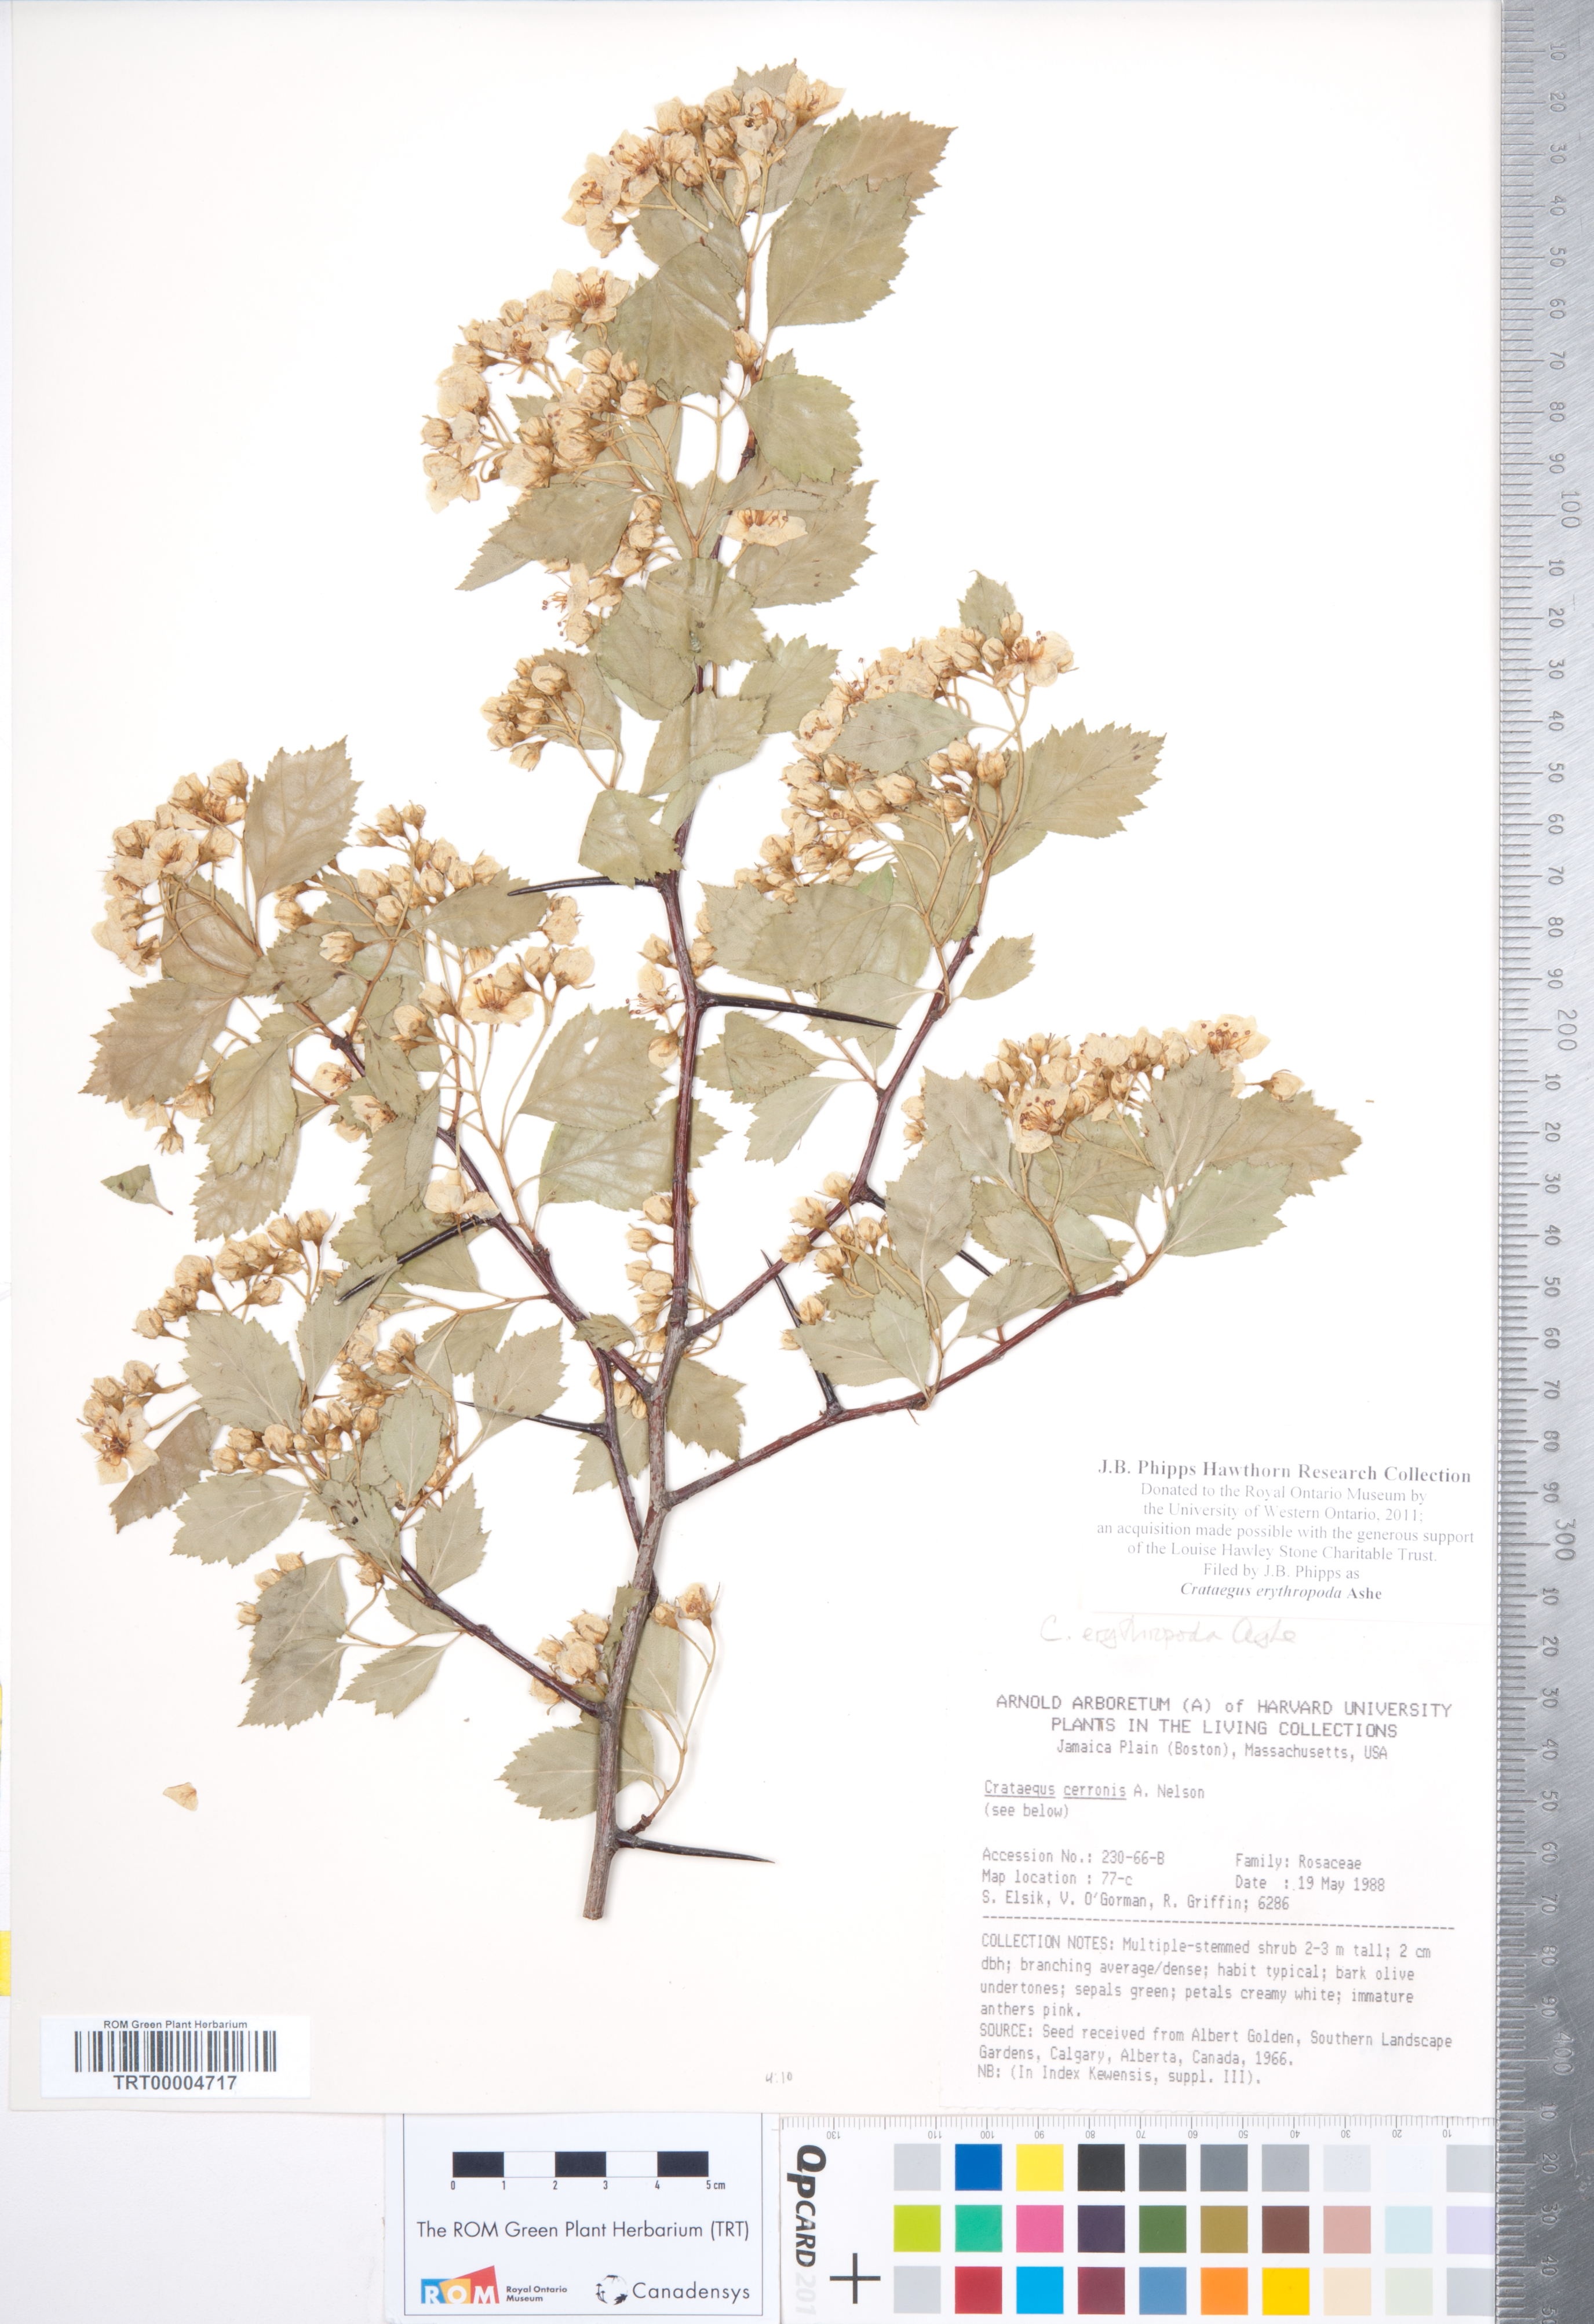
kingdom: Plantae
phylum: Tracheophyta
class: Magnoliopsida
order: Rosales
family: Rosaceae
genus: Crataegus
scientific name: Crataegus erythropoda
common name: Cerro hawthorn
